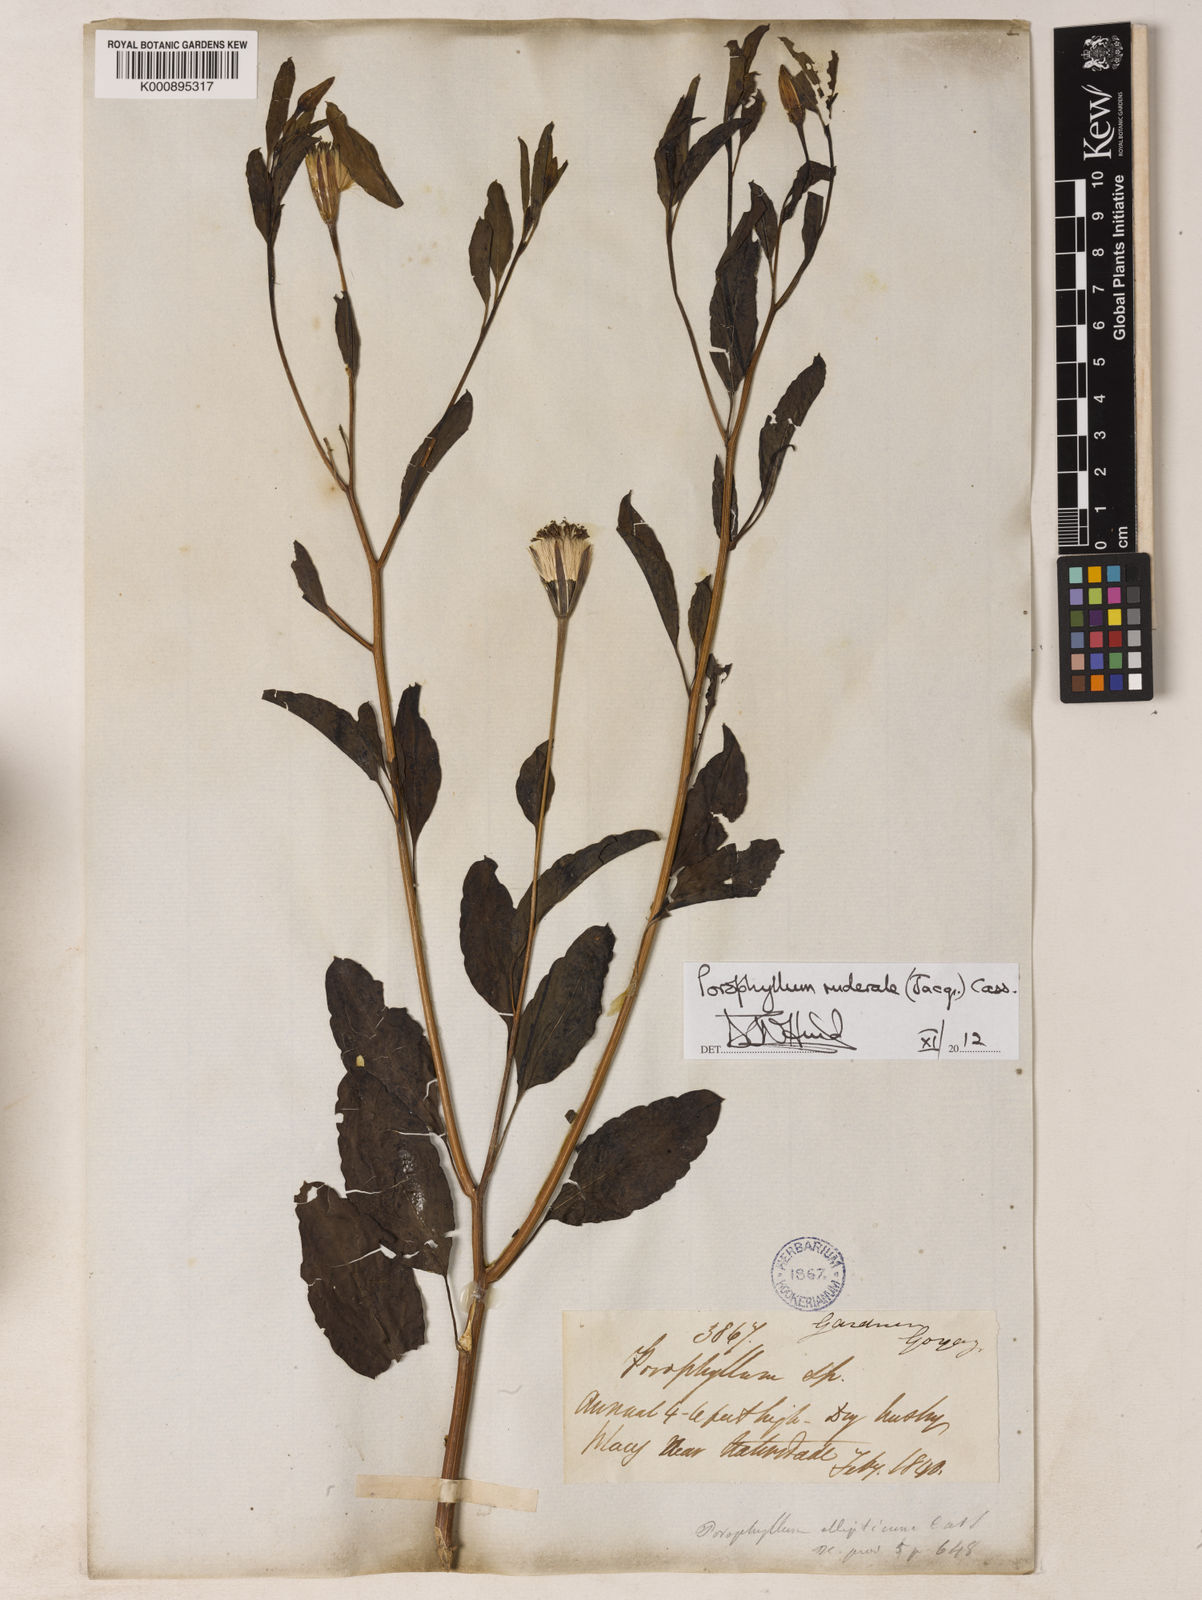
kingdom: Plantae
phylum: Tracheophyta
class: Magnoliopsida
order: Asterales
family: Asteraceae
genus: Porophyllum
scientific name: Porophyllum ruderale
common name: Yerba porosa
